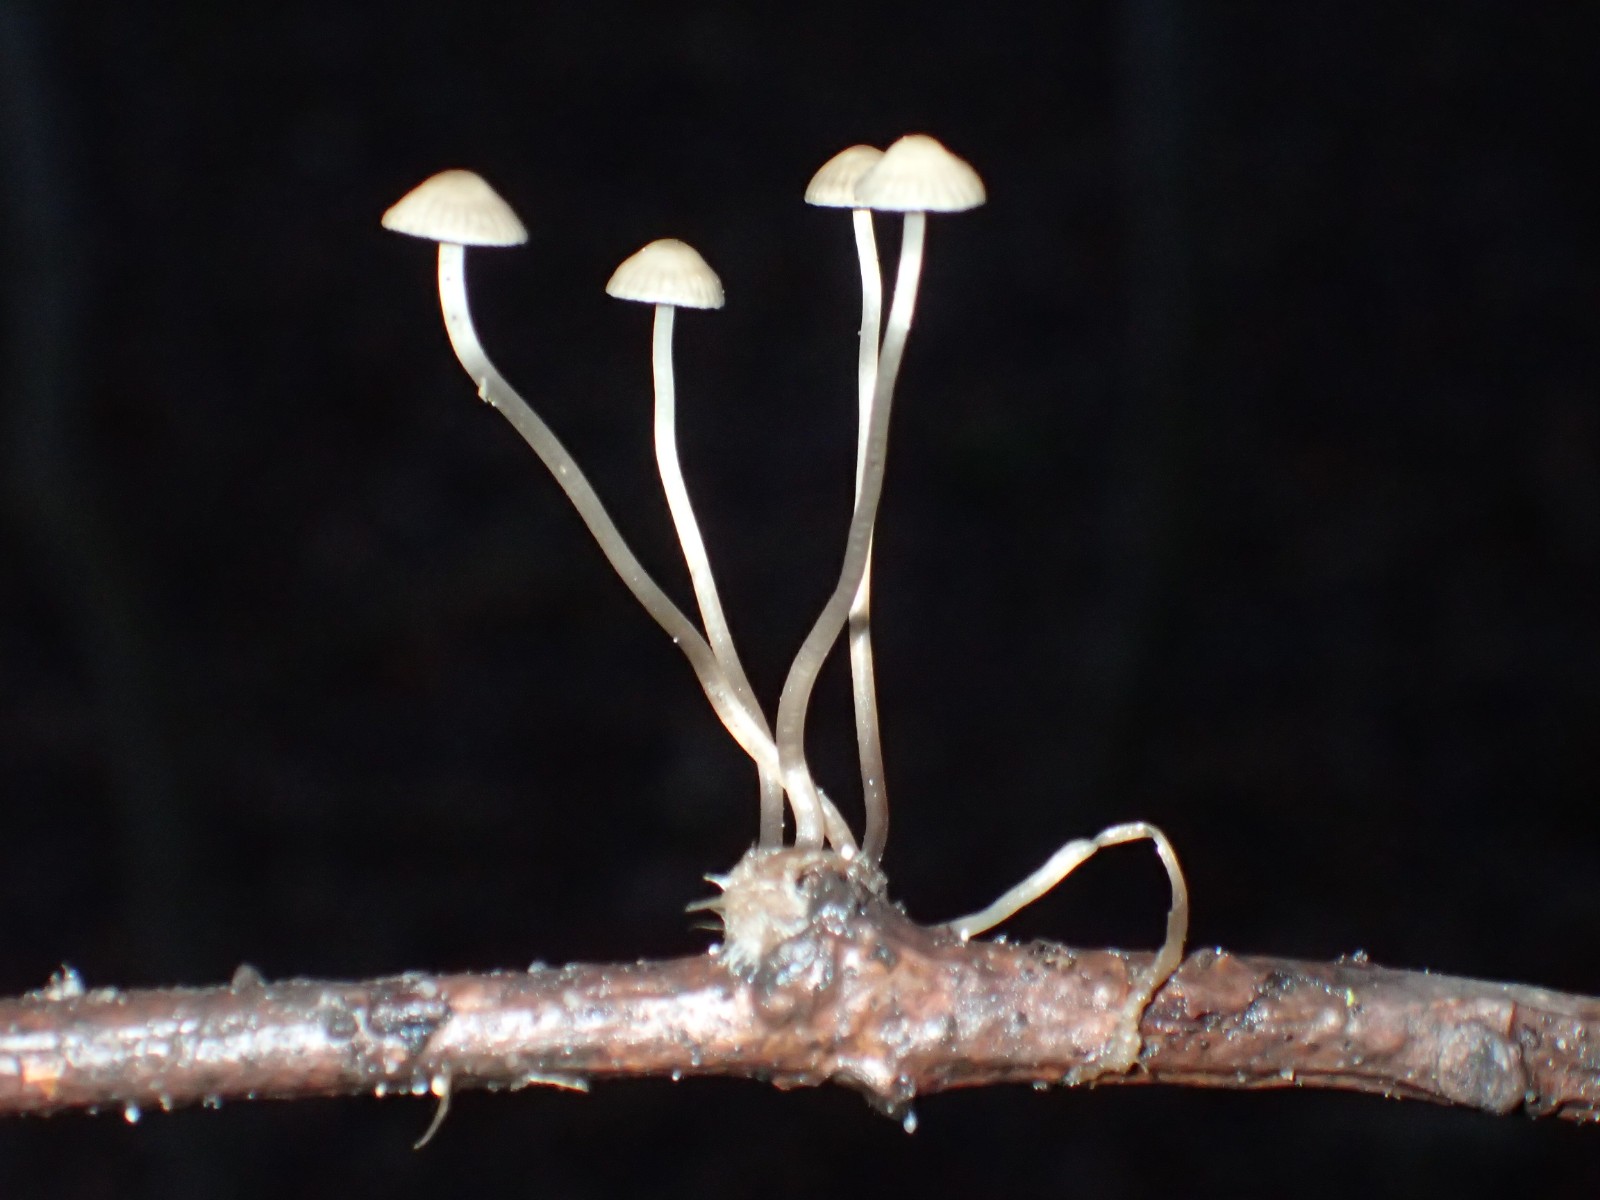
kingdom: Fungi
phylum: Basidiomycota
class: Agaricomycetes
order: Agaricales
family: Mycenaceae
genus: Mycena
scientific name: Mycena
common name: huesvamp
